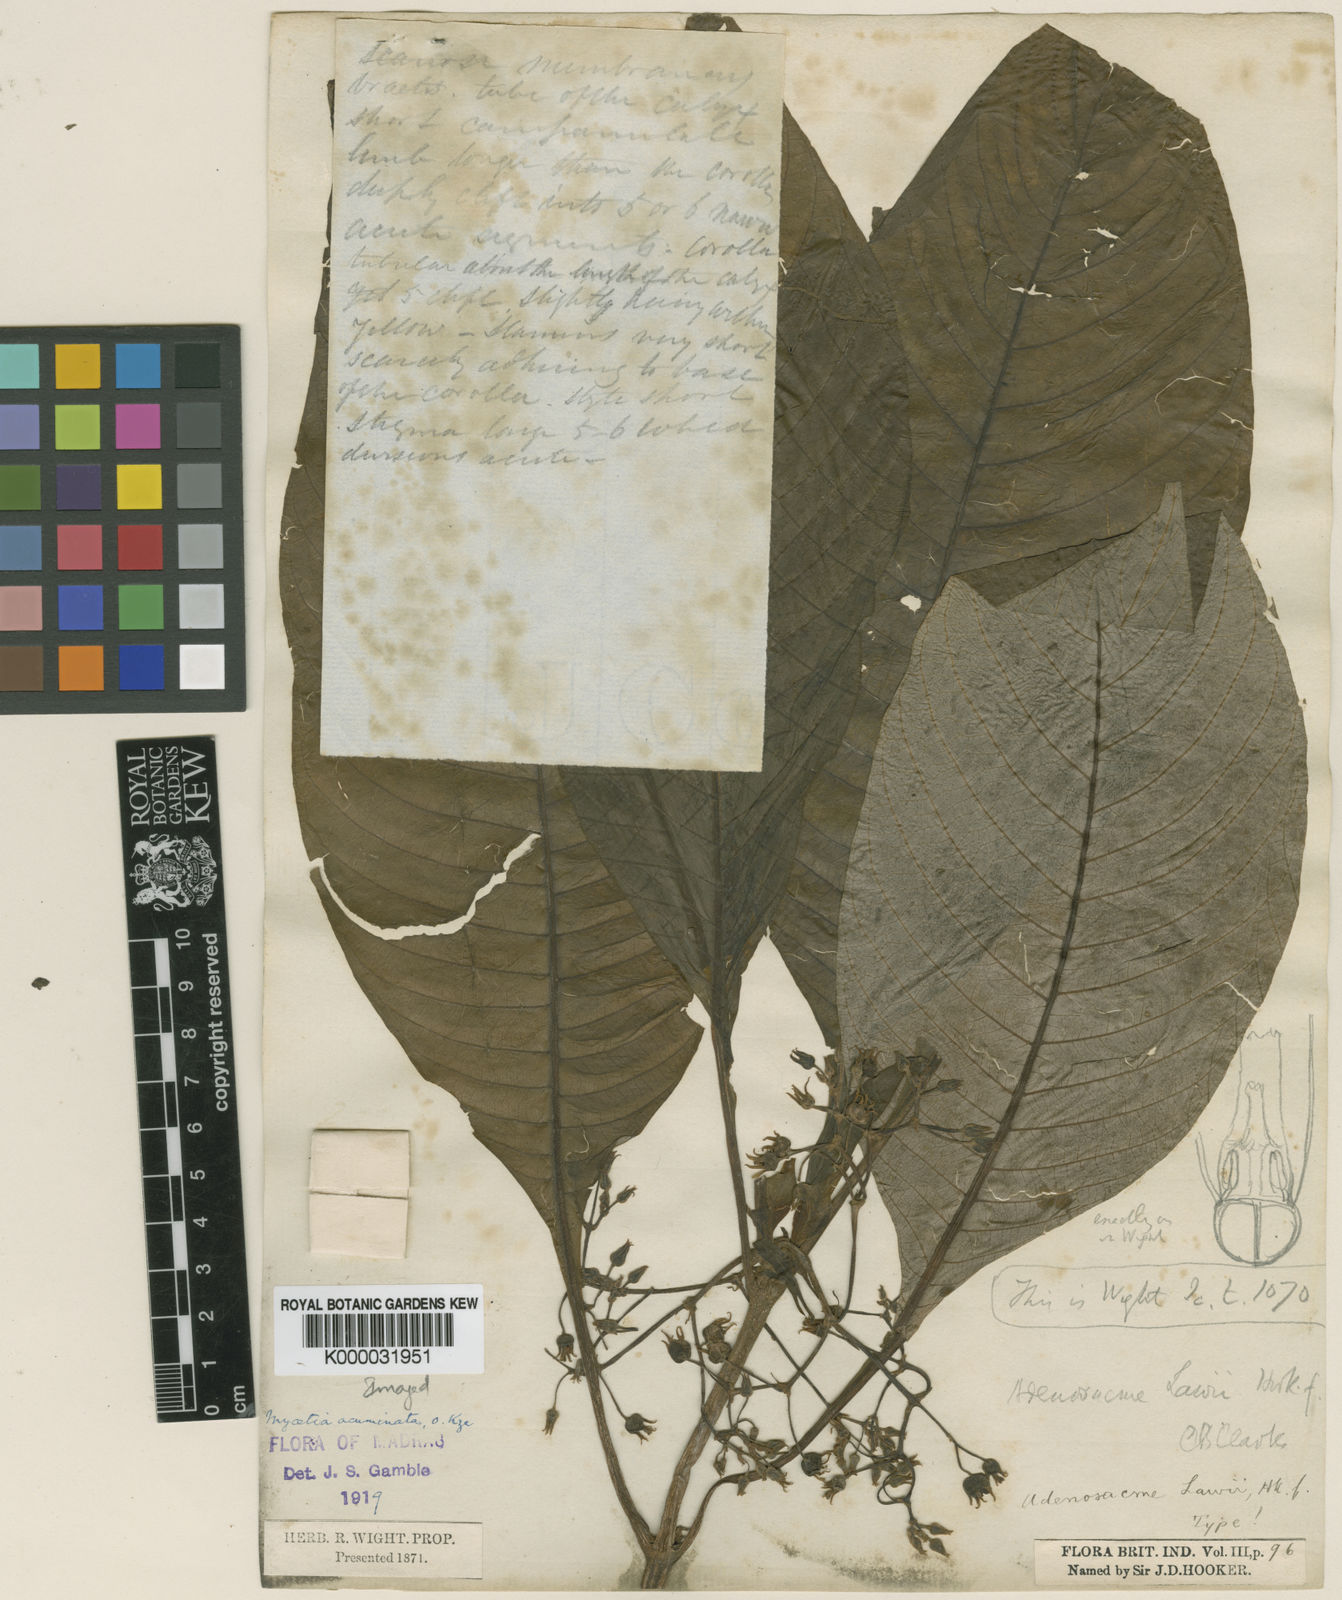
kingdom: Plantae
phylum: Tracheophyta
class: Magnoliopsida
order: Gentianales
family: Rubiaceae
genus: Mycetia
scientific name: Mycetia acuminata
